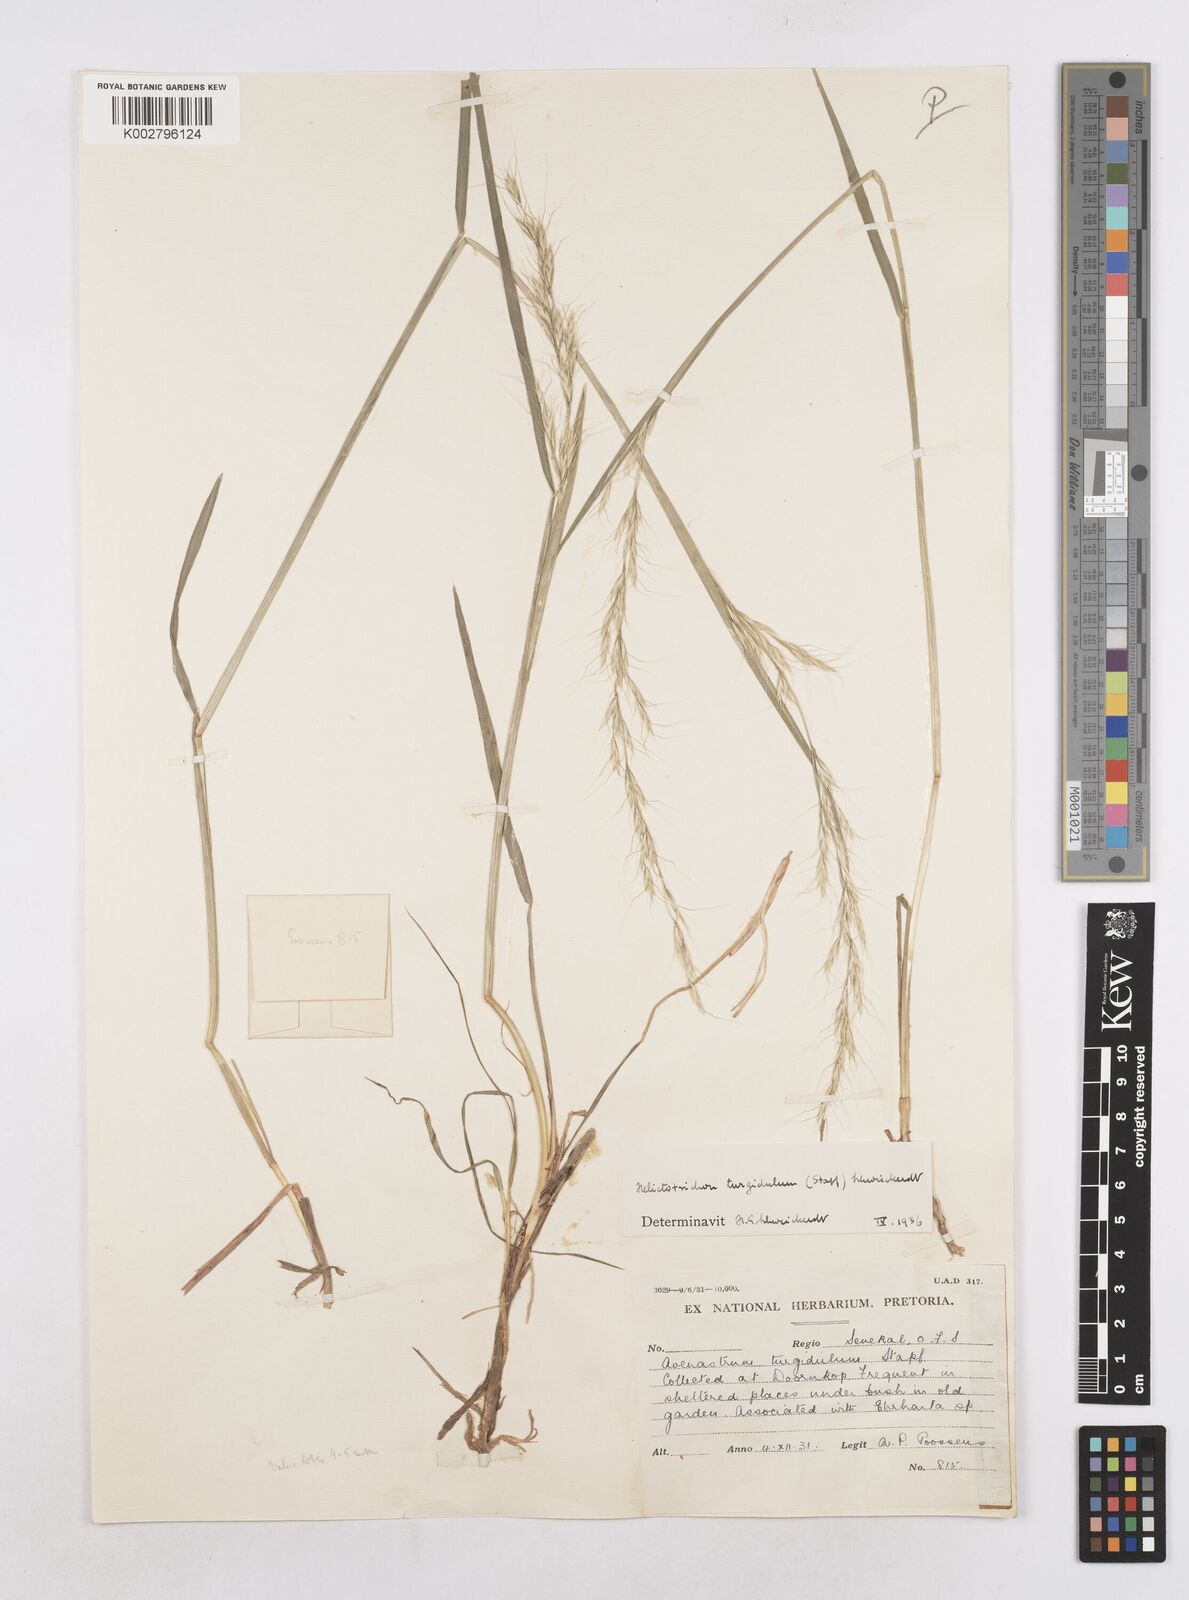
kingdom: Plantae
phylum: Tracheophyta
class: Liliopsida
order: Poales
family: Poaceae
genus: Trisetopsis
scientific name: Trisetopsis imberbis
